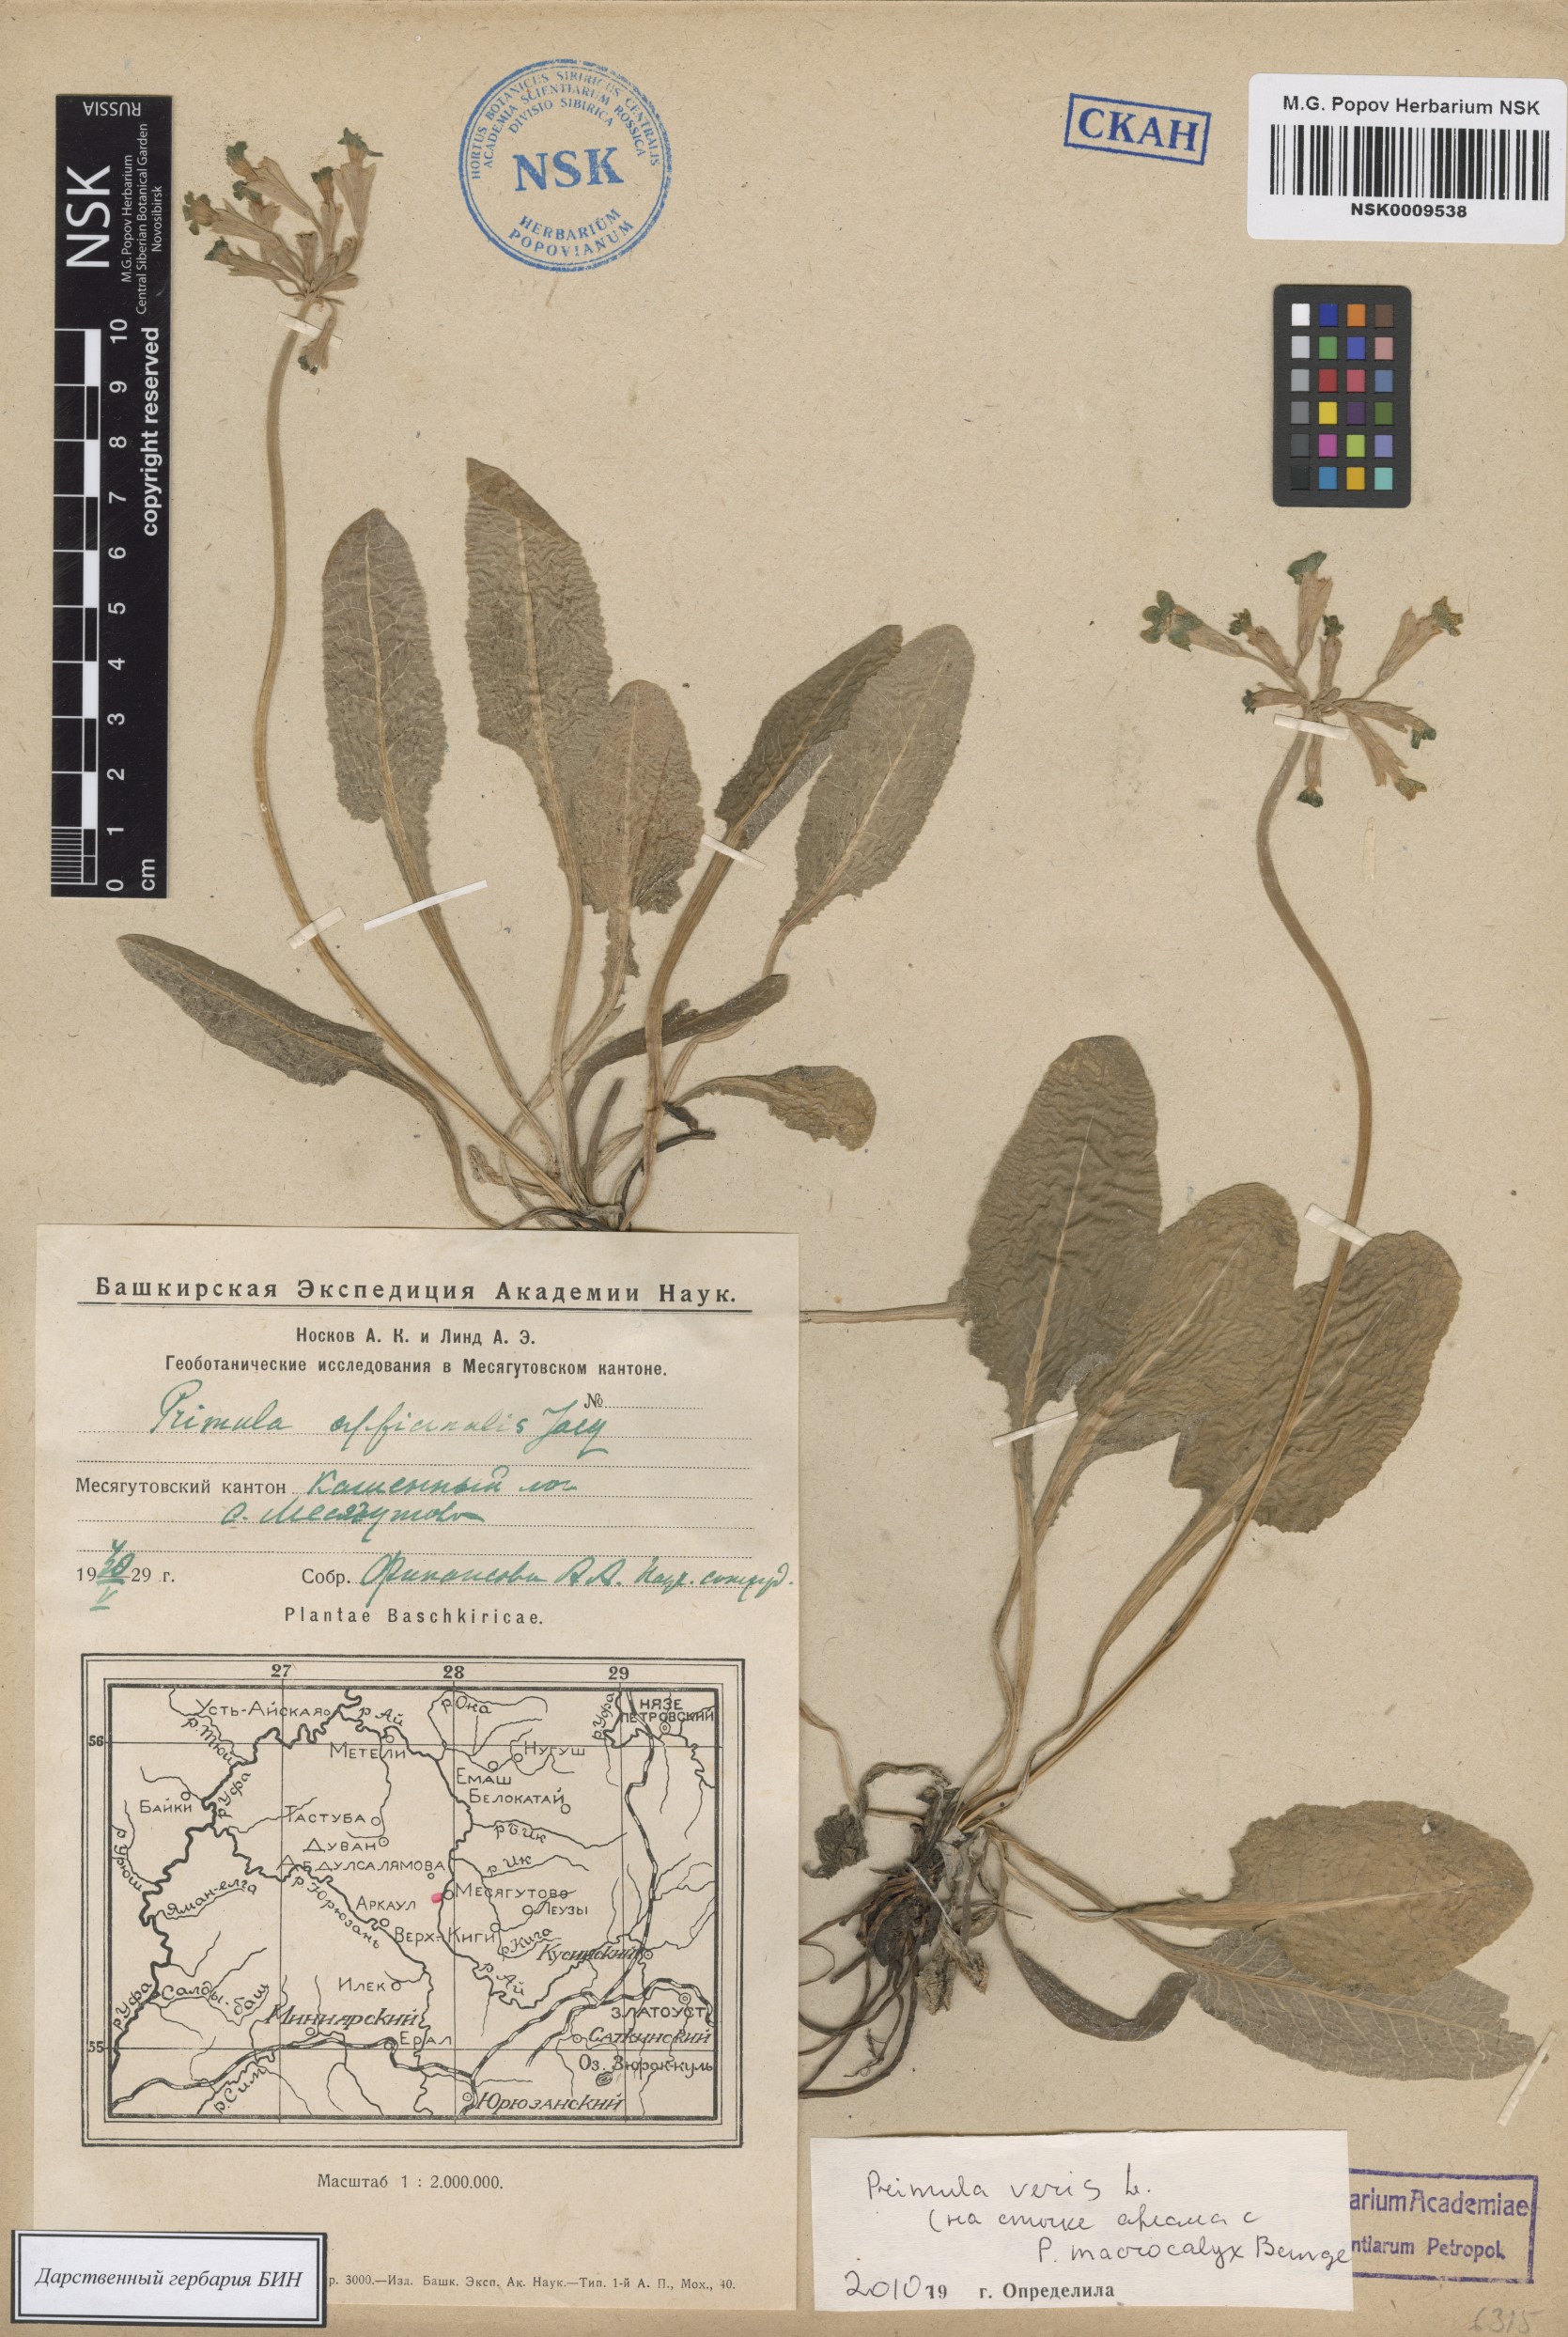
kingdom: Plantae
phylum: Tracheophyta
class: Magnoliopsida
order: Ericales
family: Primulaceae
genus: Primula
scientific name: Primula veris
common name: Cowslip
